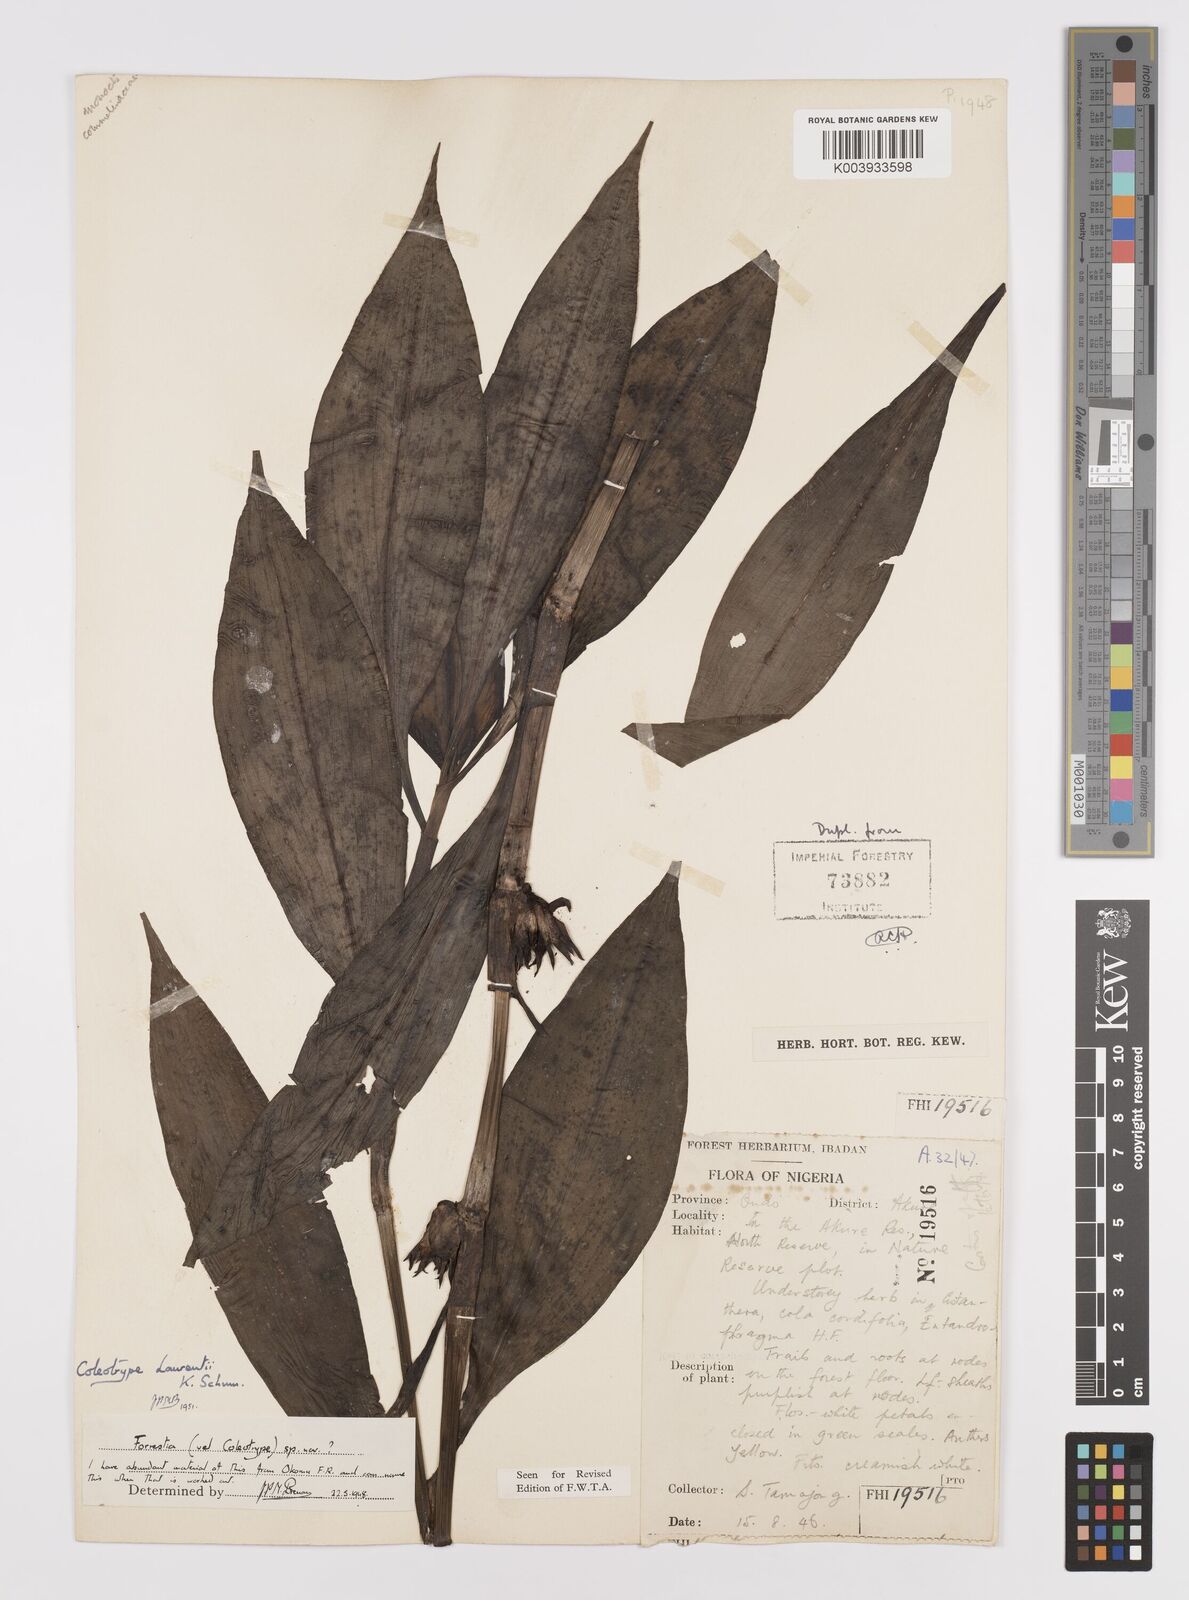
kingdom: Plantae
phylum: Tracheophyta
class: Liliopsida
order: Commelinales
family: Commelinaceae
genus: Coleotrype
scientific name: Coleotrype laurentii
